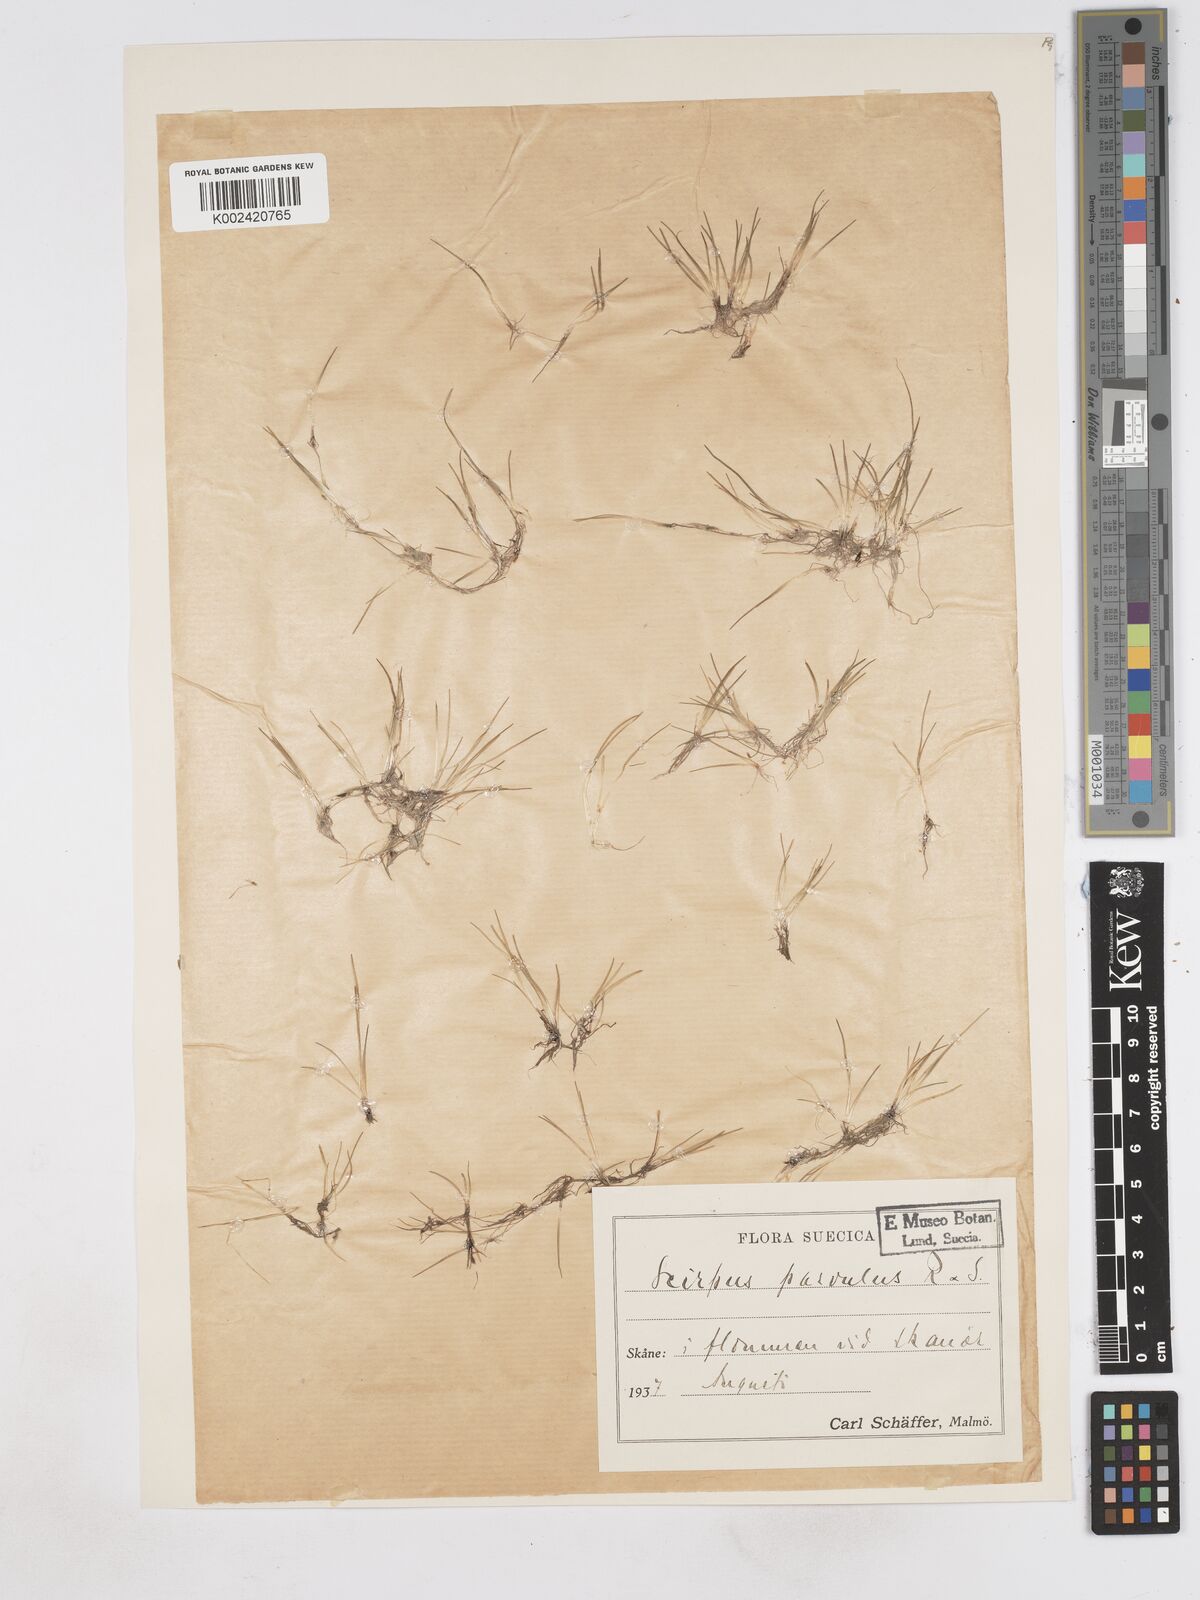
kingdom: Plantae
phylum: Tracheophyta
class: Liliopsida
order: Poales
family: Cyperaceae
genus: Eleocharis
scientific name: Eleocharis parvula
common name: Dwarf spike-rush
